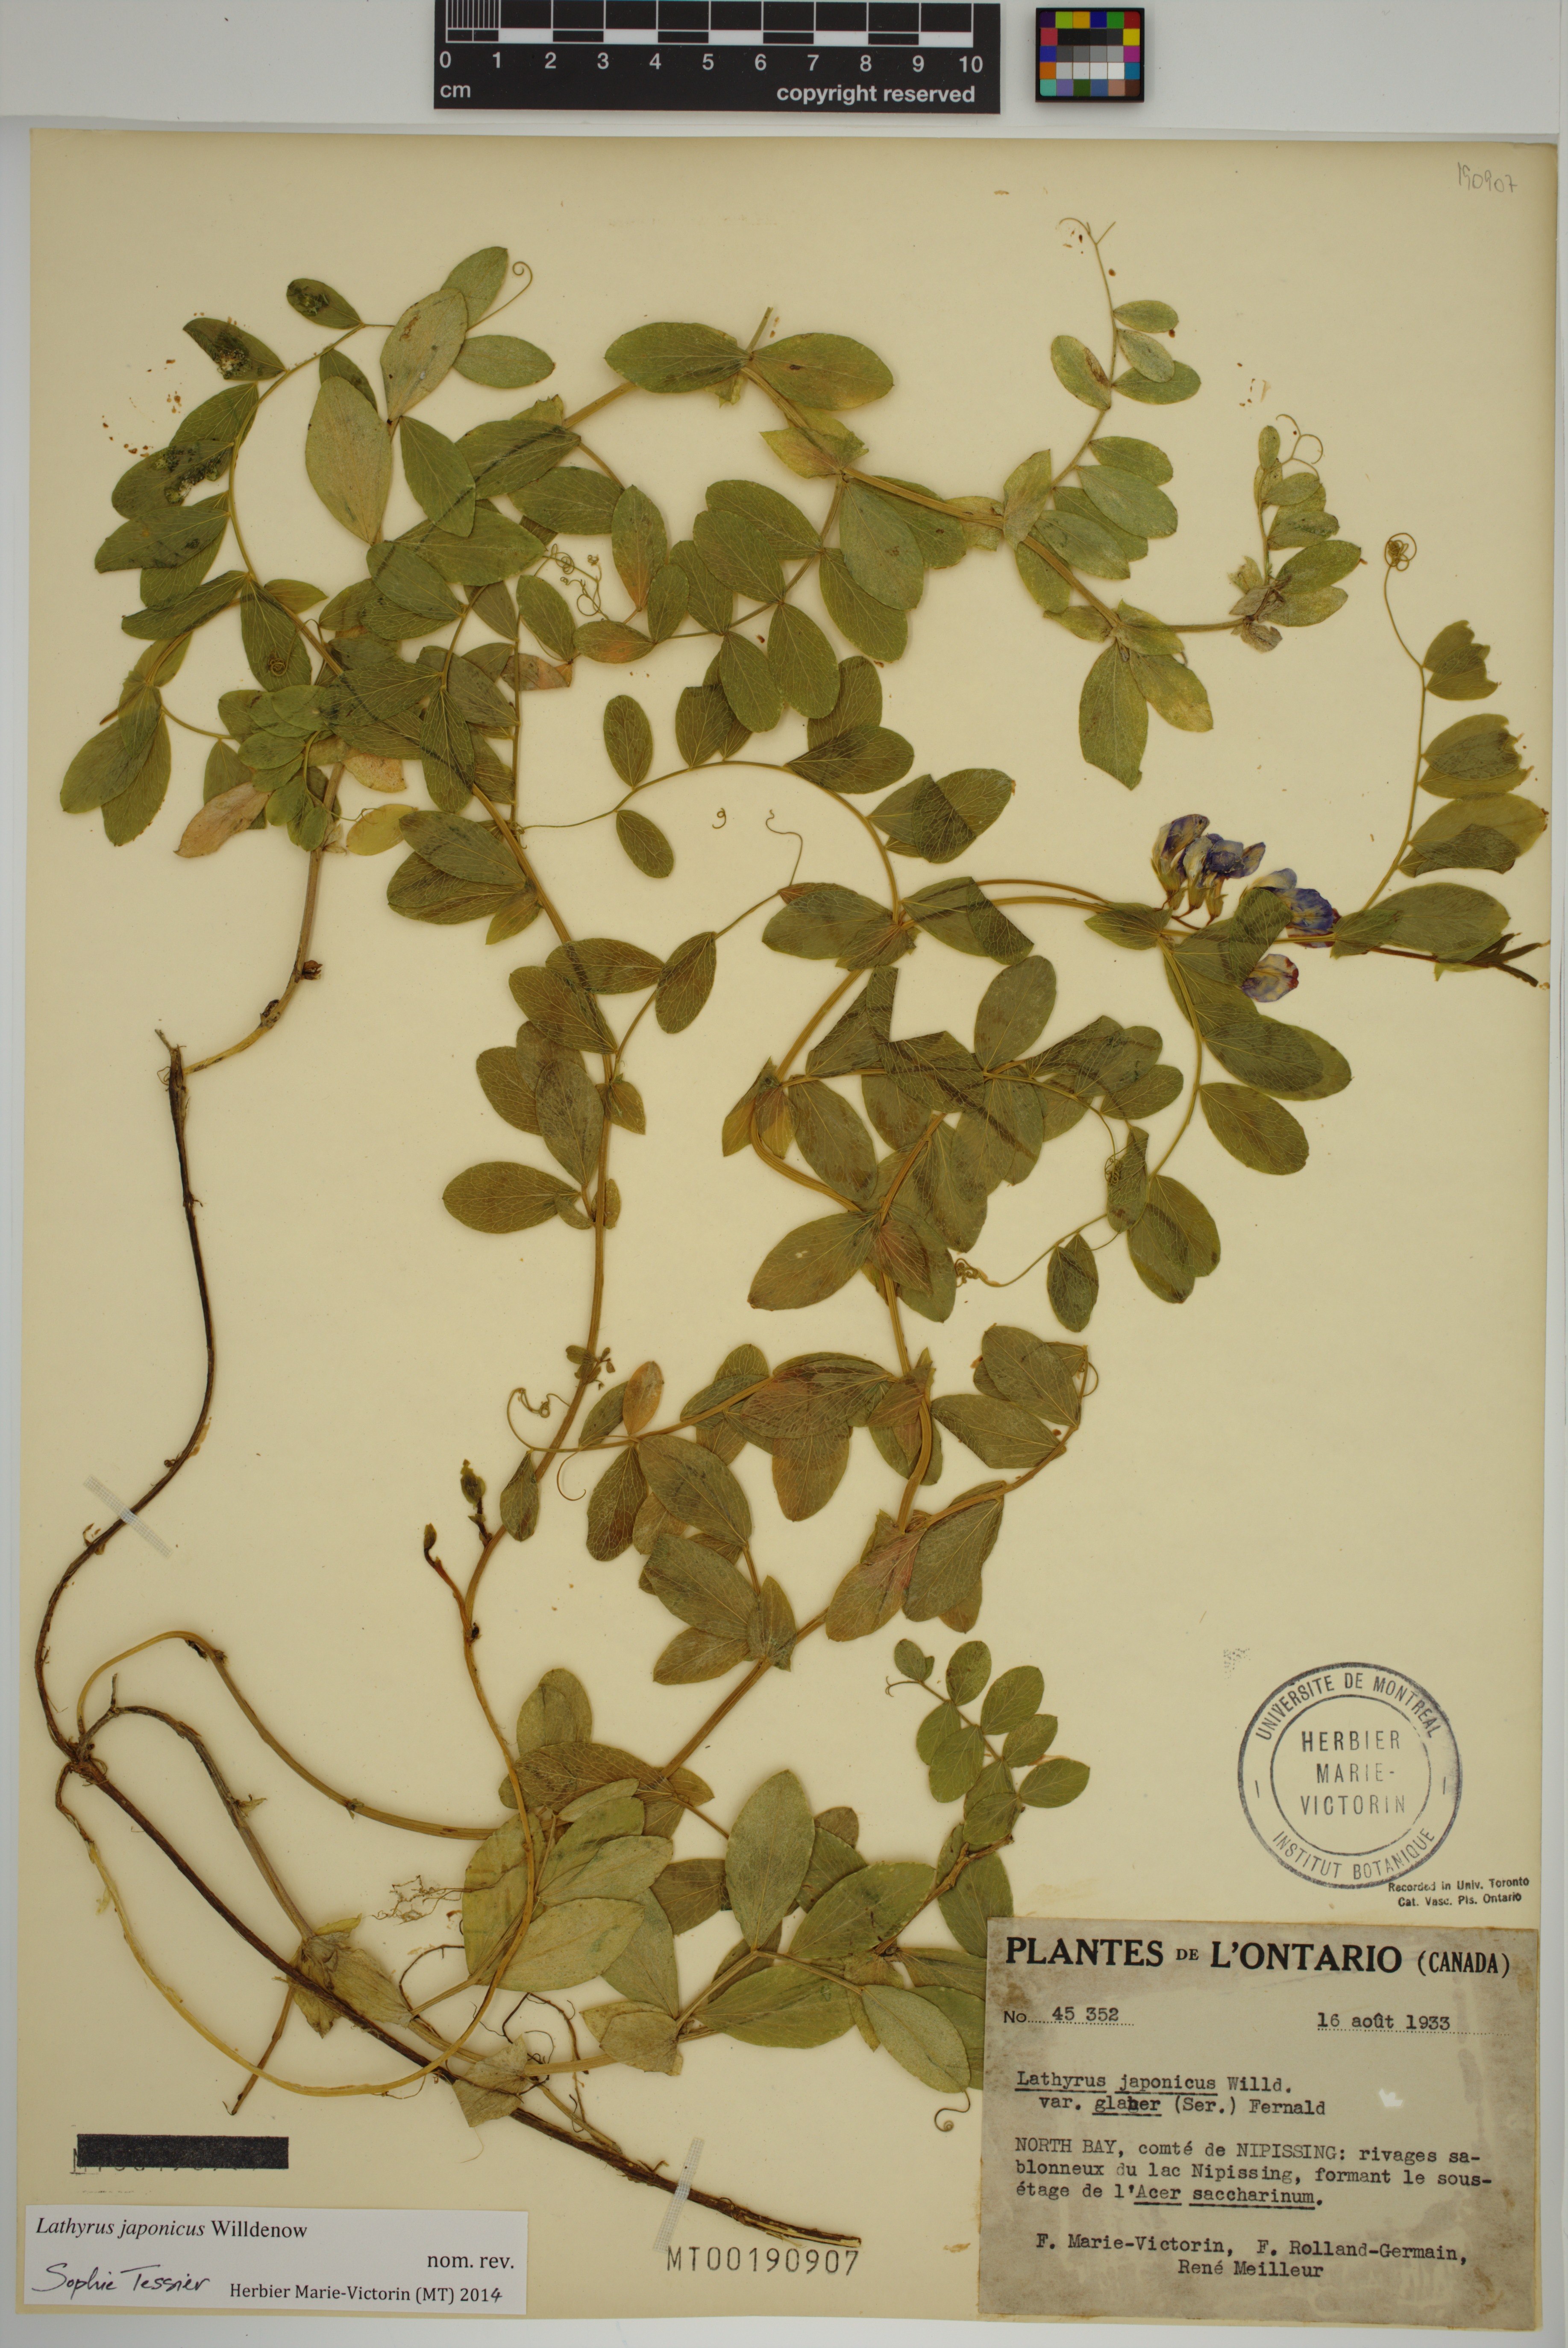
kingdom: Plantae
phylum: Tracheophyta
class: Magnoliopsida
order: Fabales
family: Fabaceae
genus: Lathyrus
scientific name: Lathyrus japonicus
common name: Sea pea
